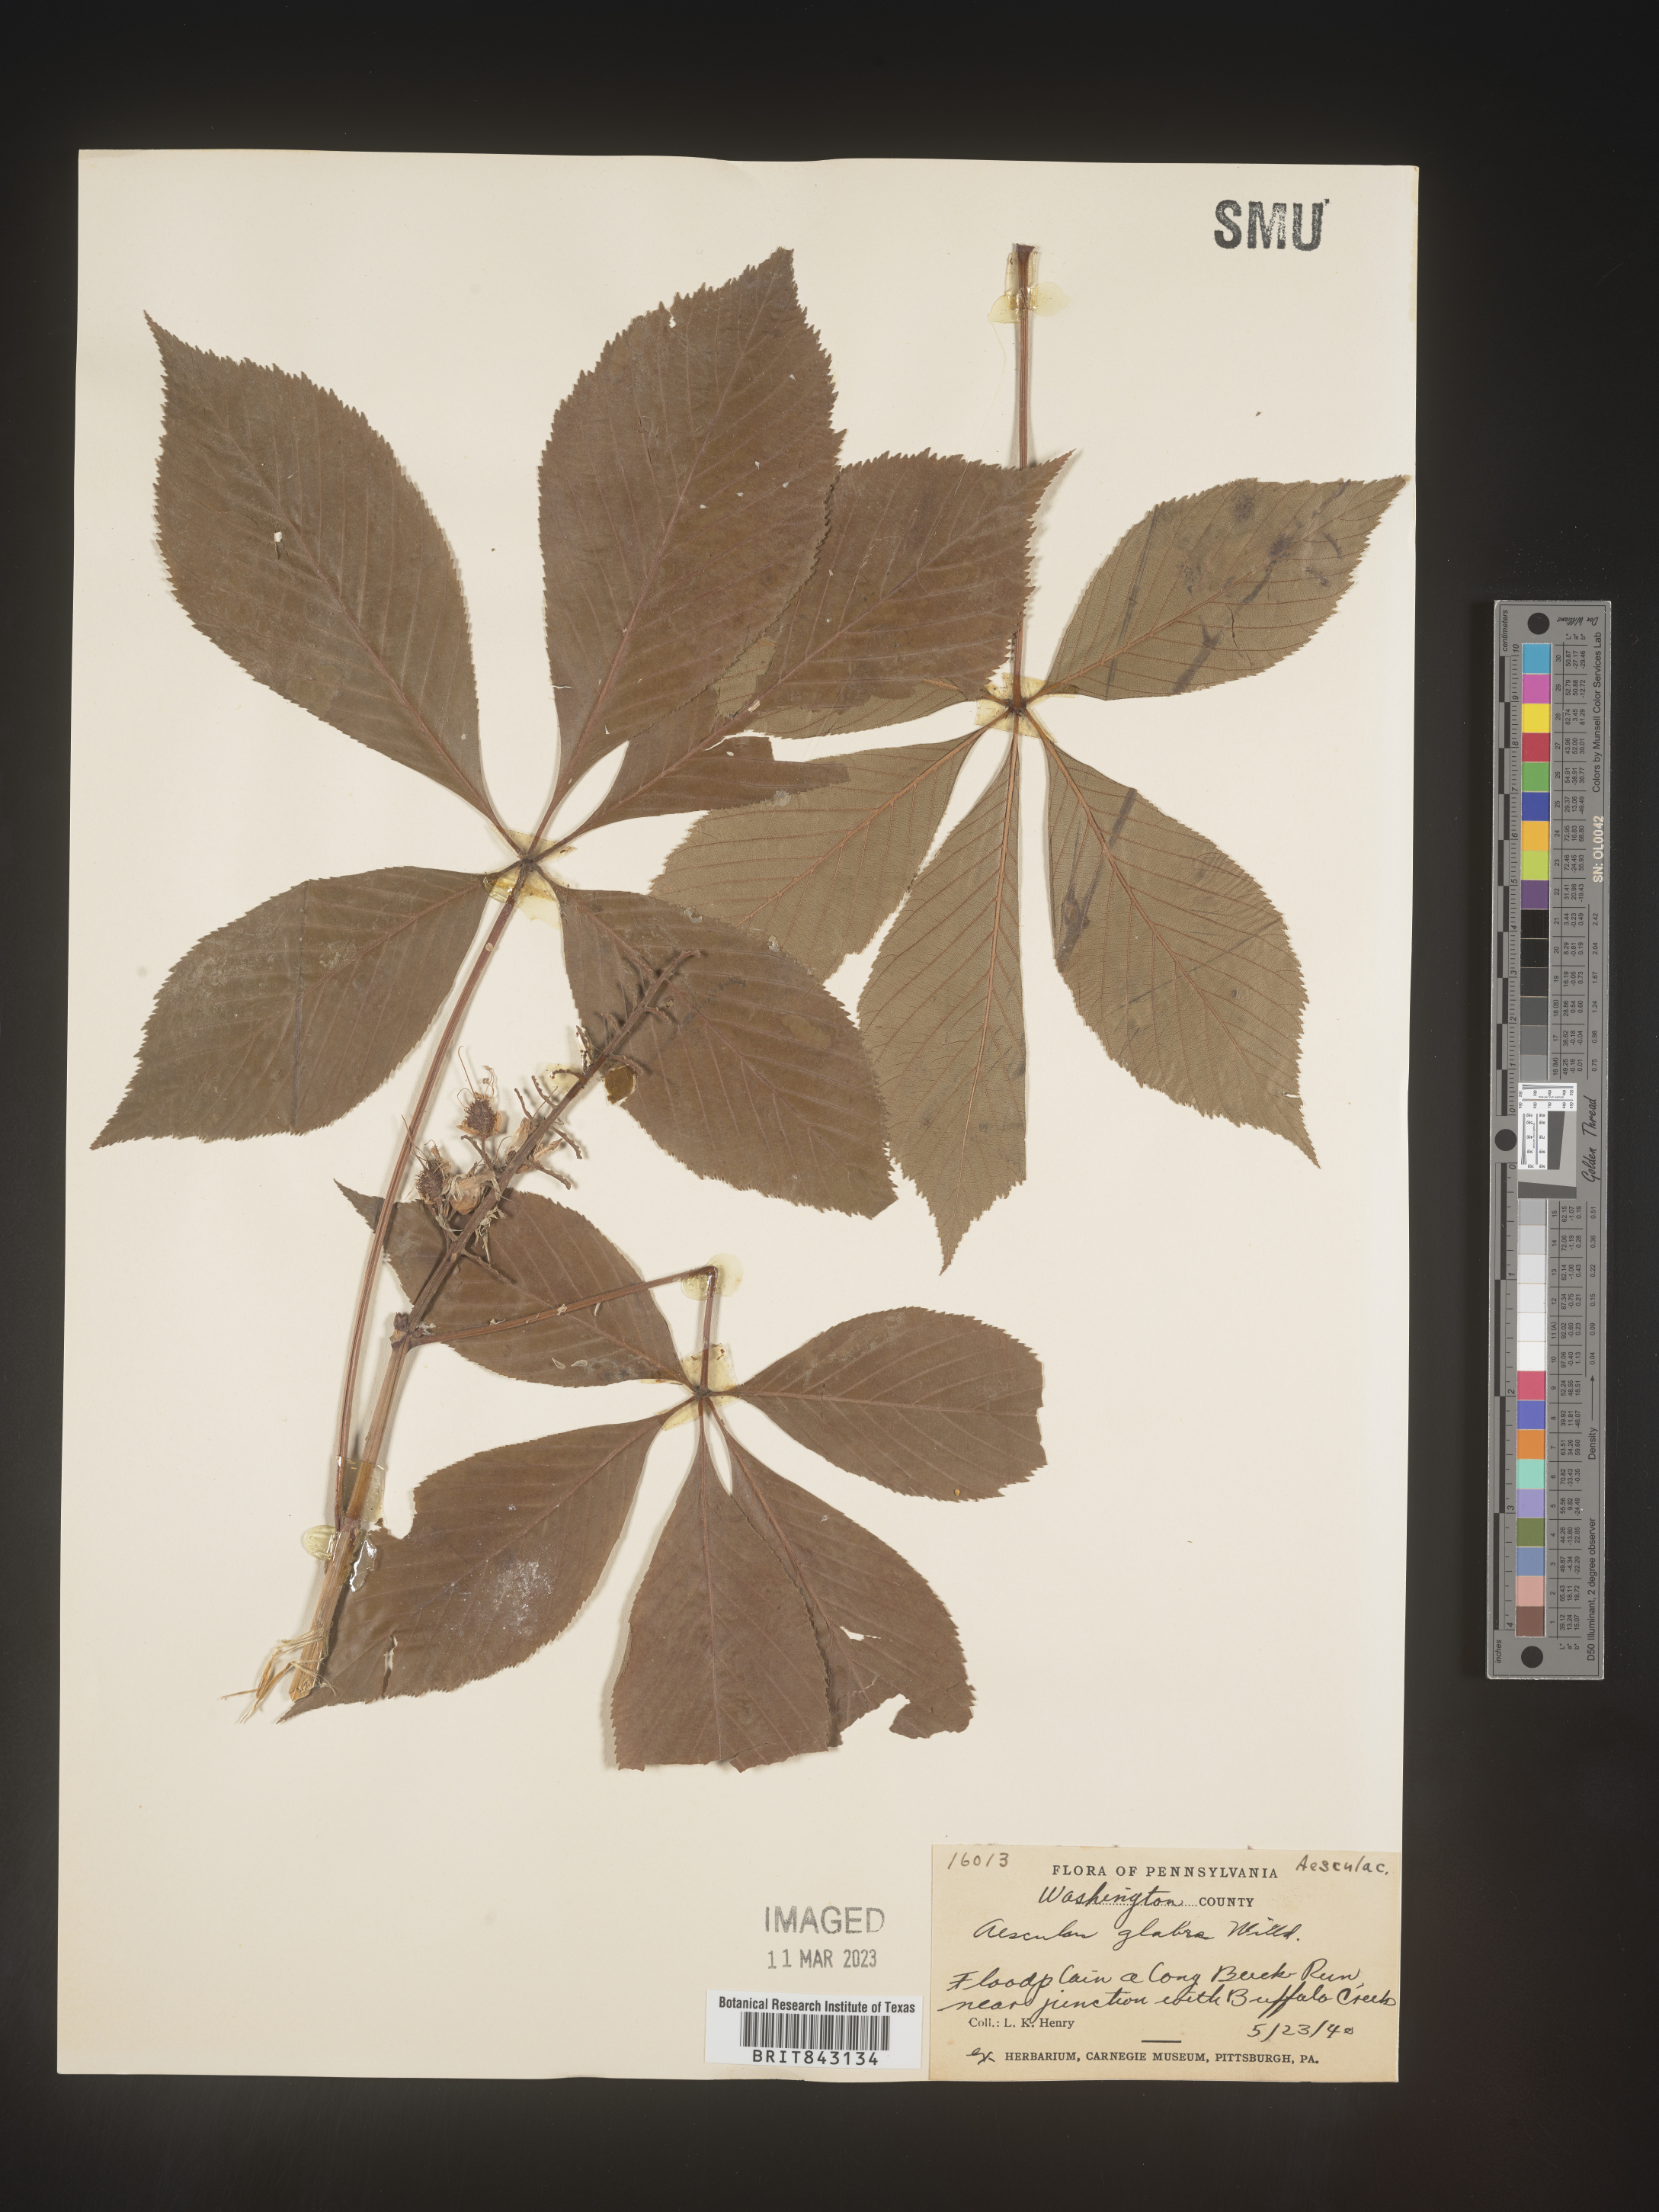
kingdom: Plantae
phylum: Tracheophyta
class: Magnoliopsida
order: Sapindales
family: Sapindaceae
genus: Aesculus
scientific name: Aesculus glabra
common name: Ohio buckeye
